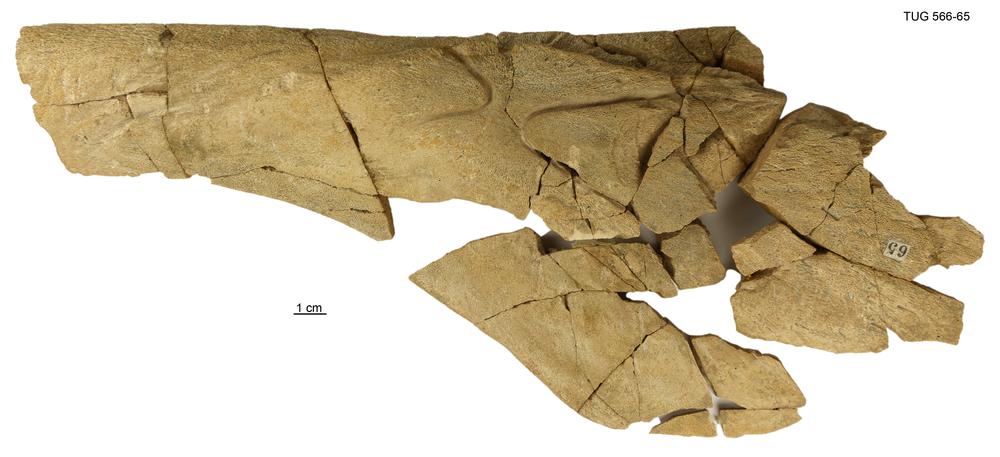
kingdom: Animalia
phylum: Chordata
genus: Homosteus
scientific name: Homosteus latus
